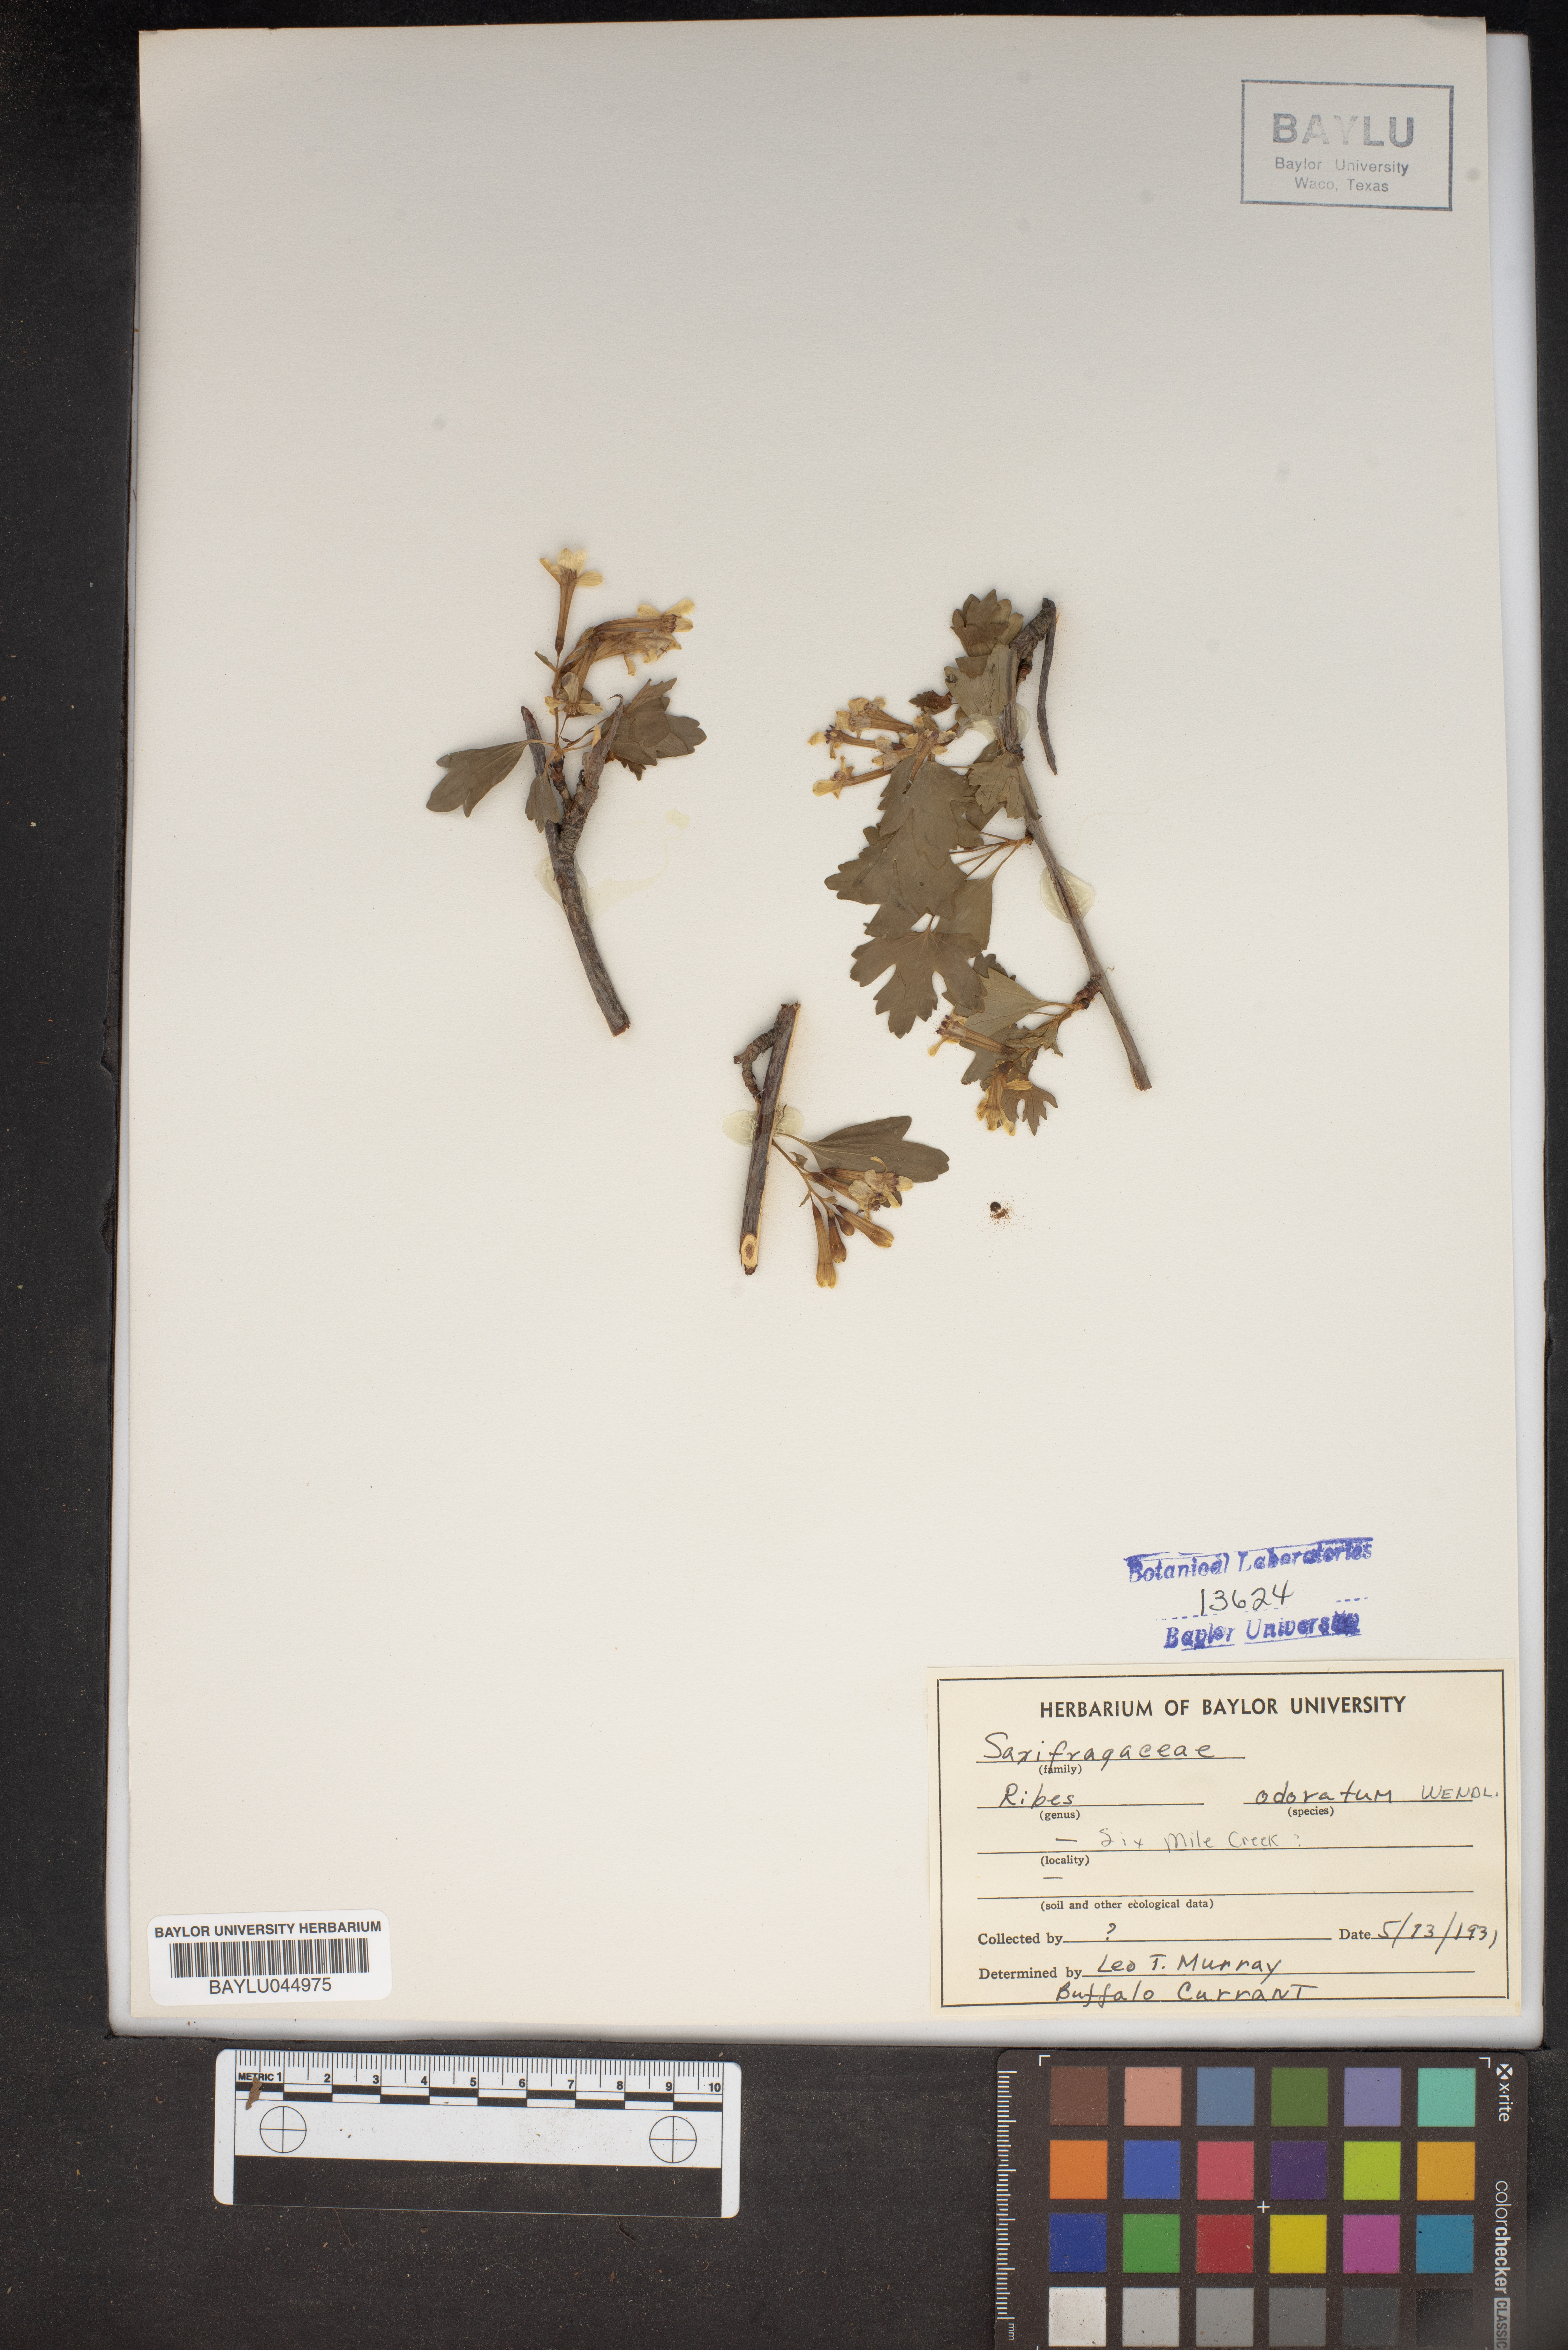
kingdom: Plantae
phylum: Tracheophyta
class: Magnoliopsida
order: Saxifragales
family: Grossulariaceae
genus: Ribes
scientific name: Ribes aureum
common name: Golden currant
